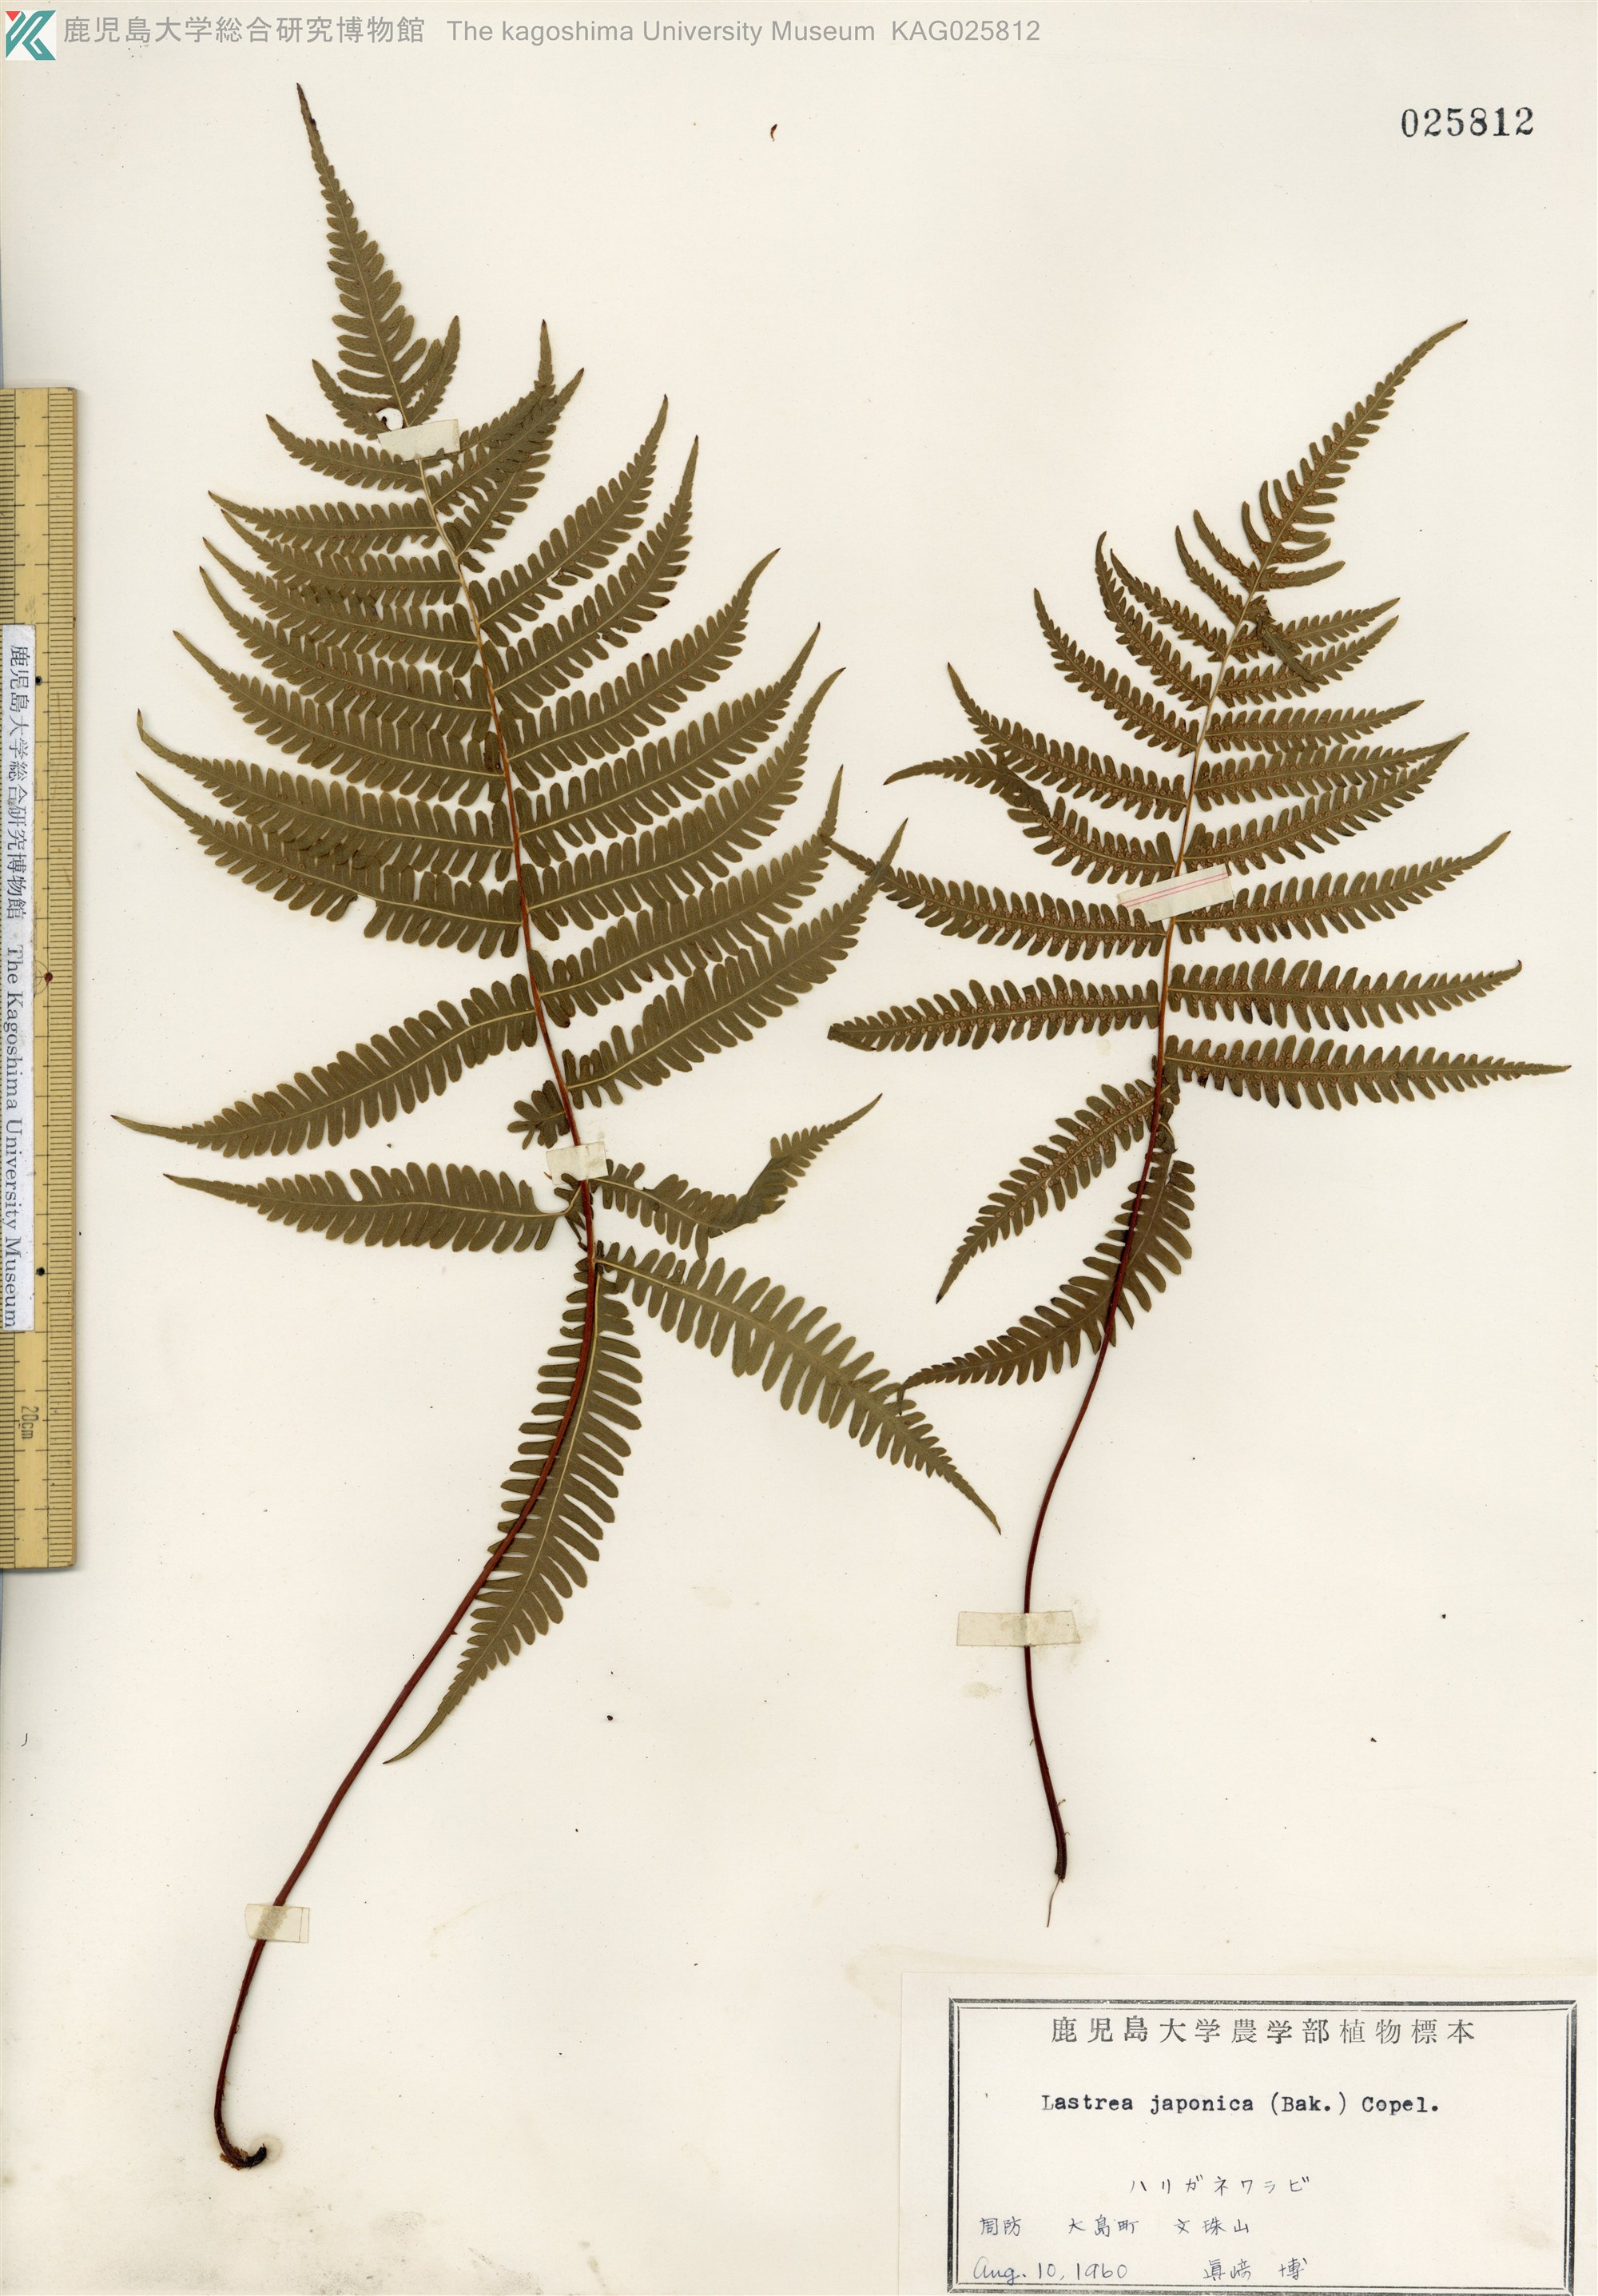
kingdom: Plantae
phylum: Tracheophyta
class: Polypodiopsida
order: Polypodiales
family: Thelypteridaceae
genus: Coryphopteris
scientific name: Coryphopteris japonica
